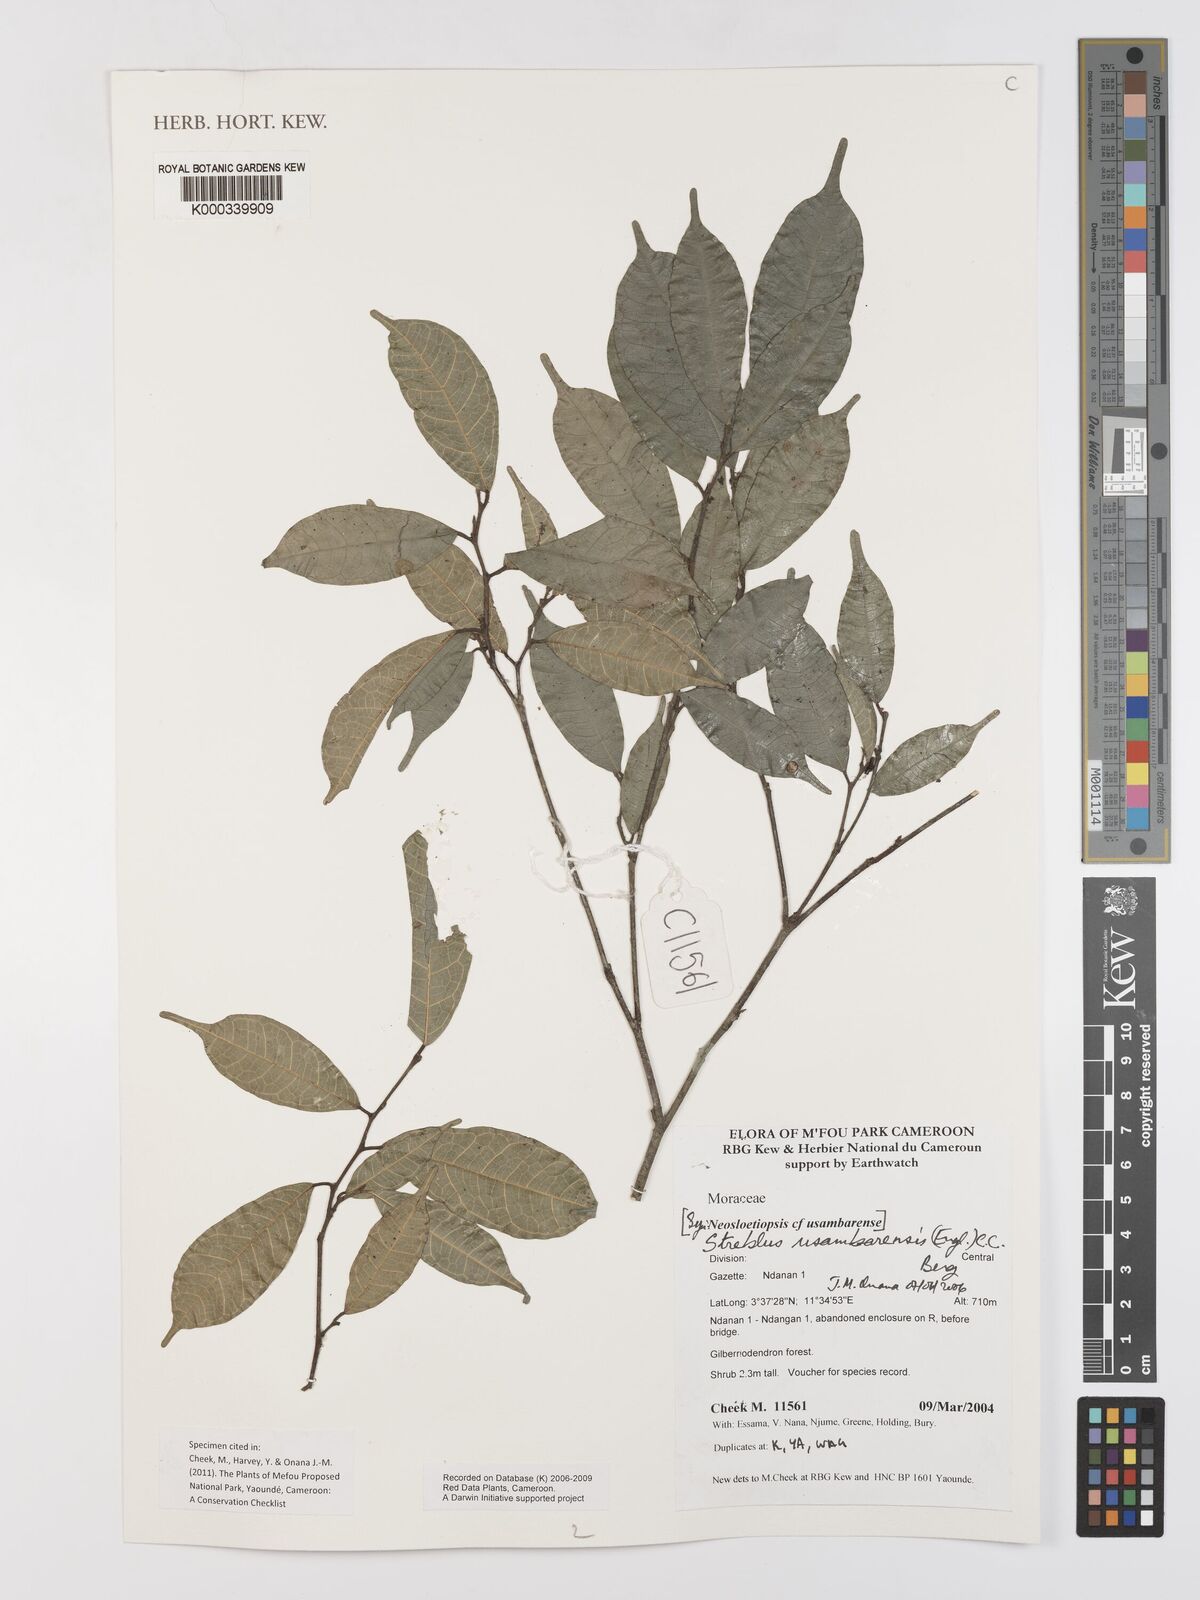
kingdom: Plantae
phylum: Tracheophyta
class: Magnoliopsida
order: Rosales
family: Moraceae
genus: Sloetiopsis
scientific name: Sloetiopsis usambarensis
